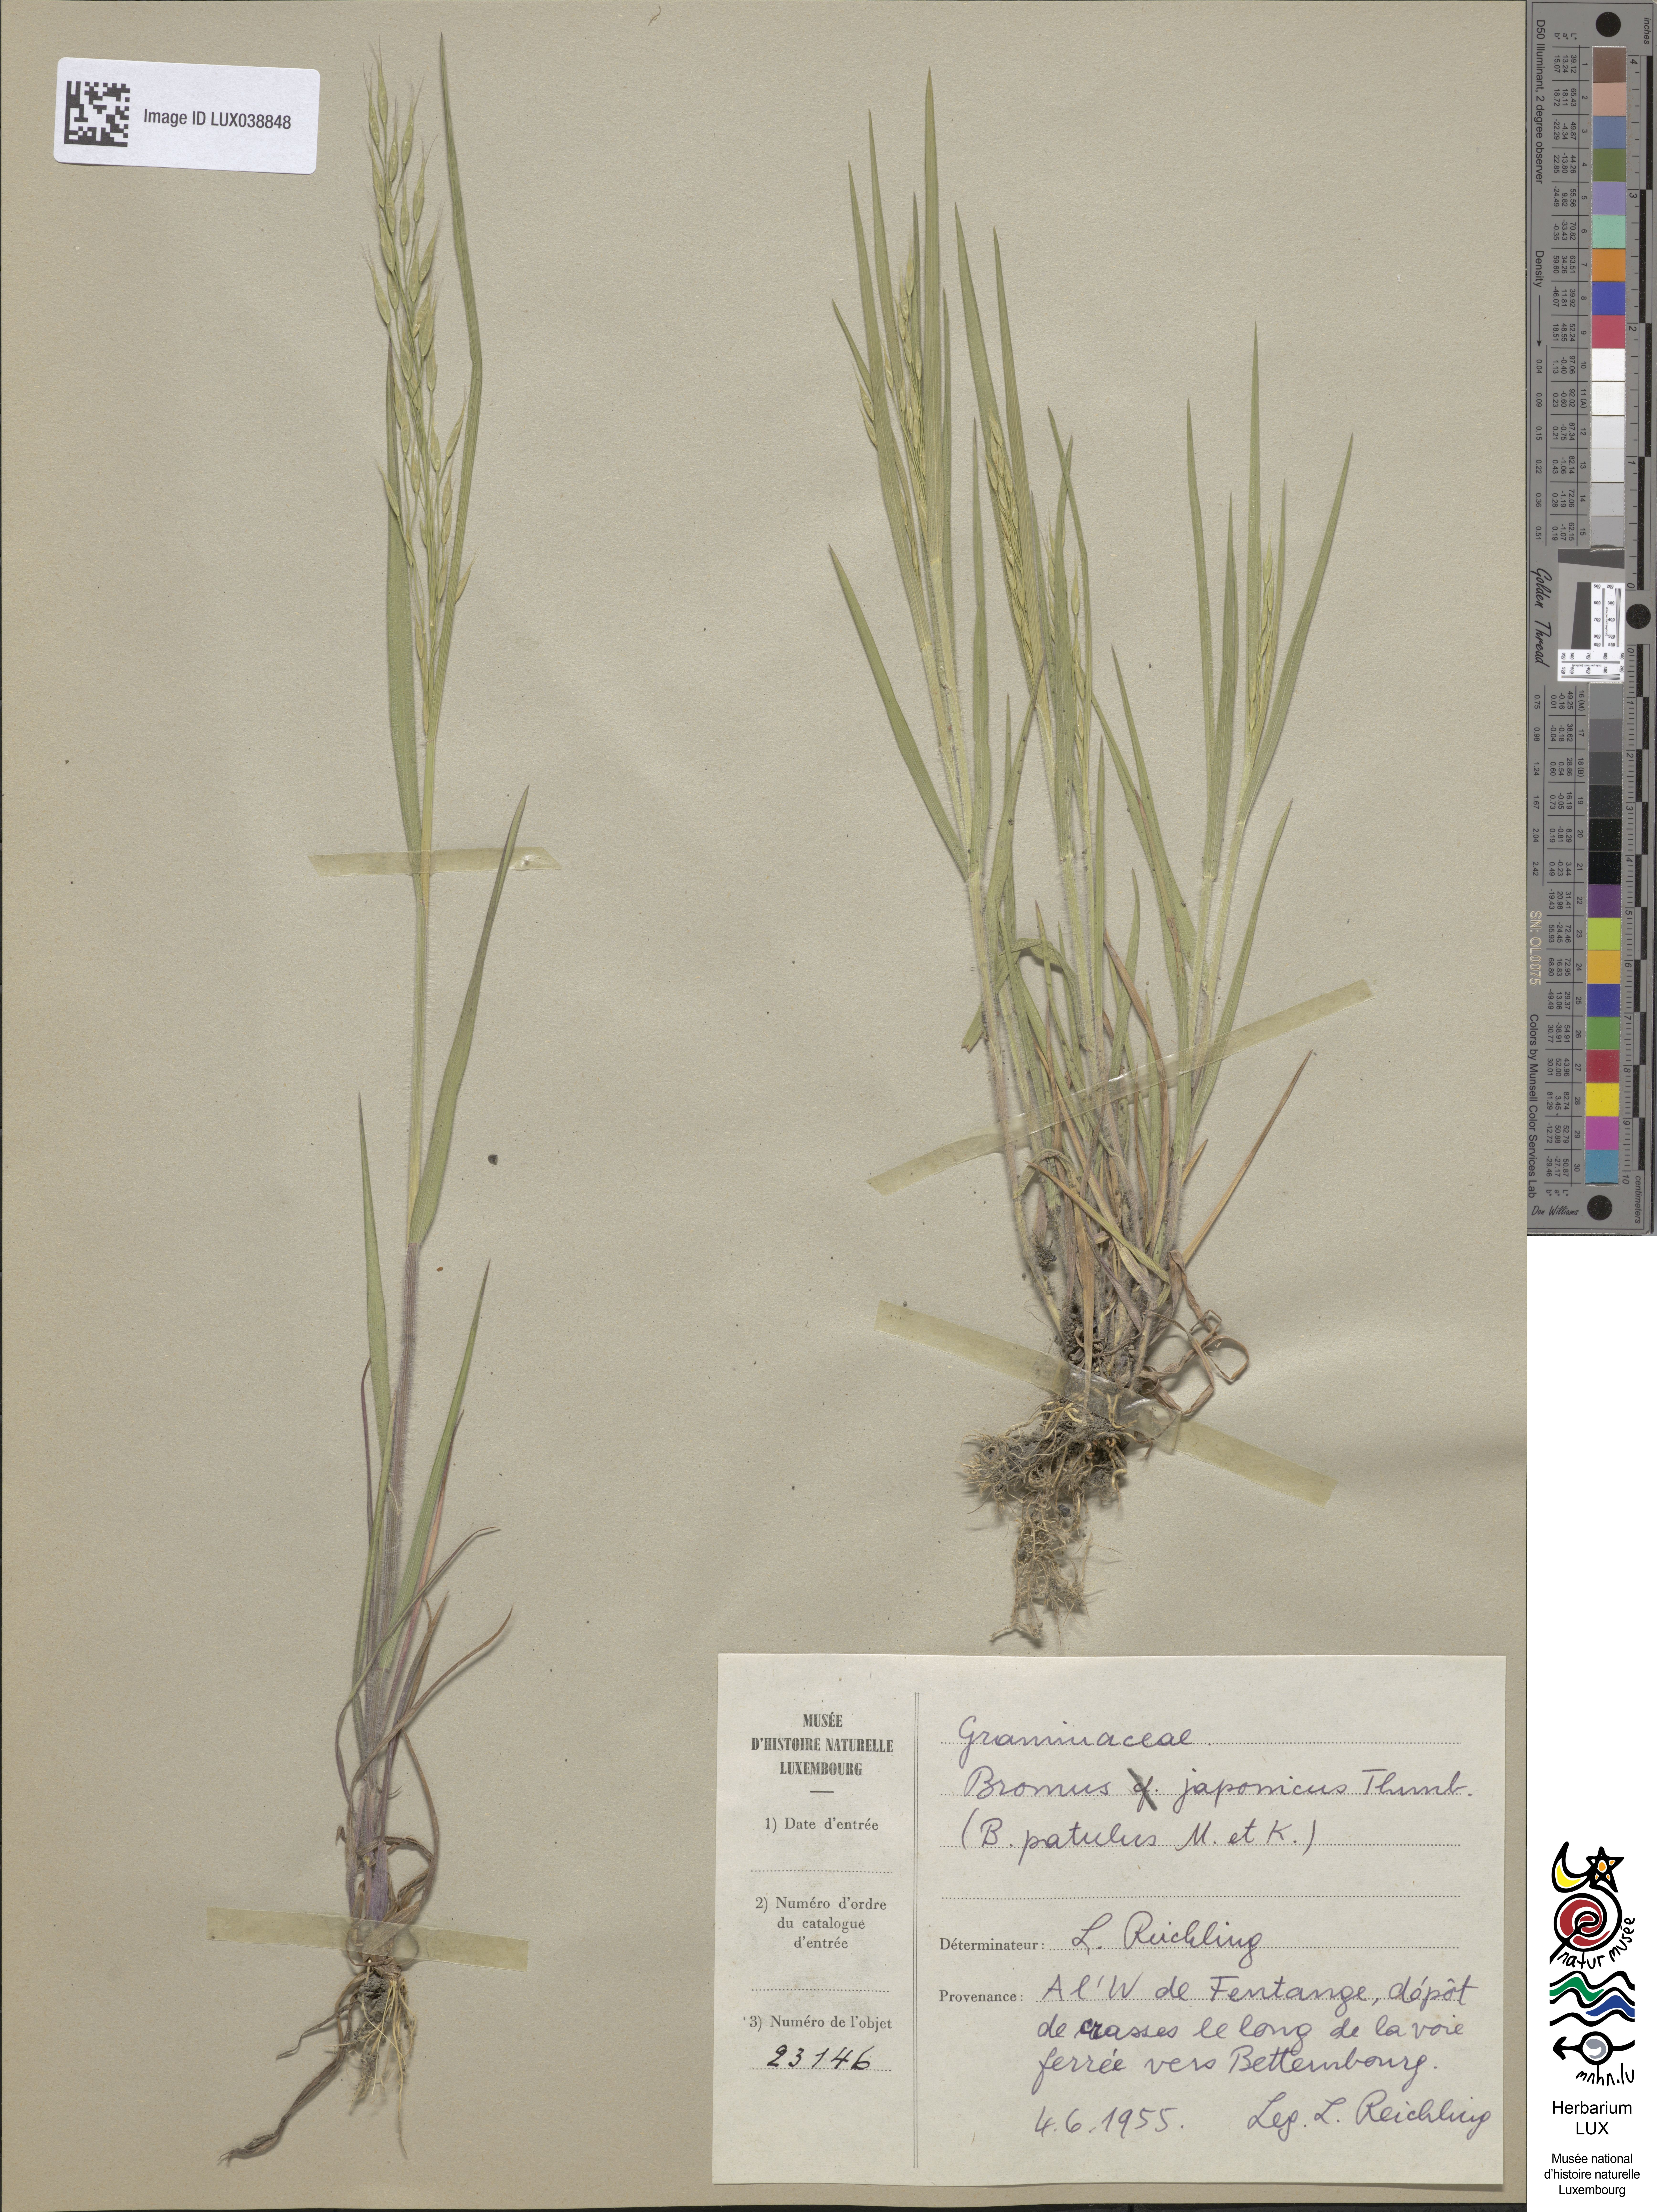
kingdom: Plantae
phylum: Tracheophyta
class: Liliopsida
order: Poales
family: Poaceae
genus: Bromus
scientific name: Bromus japonicus
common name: Japanese brome
